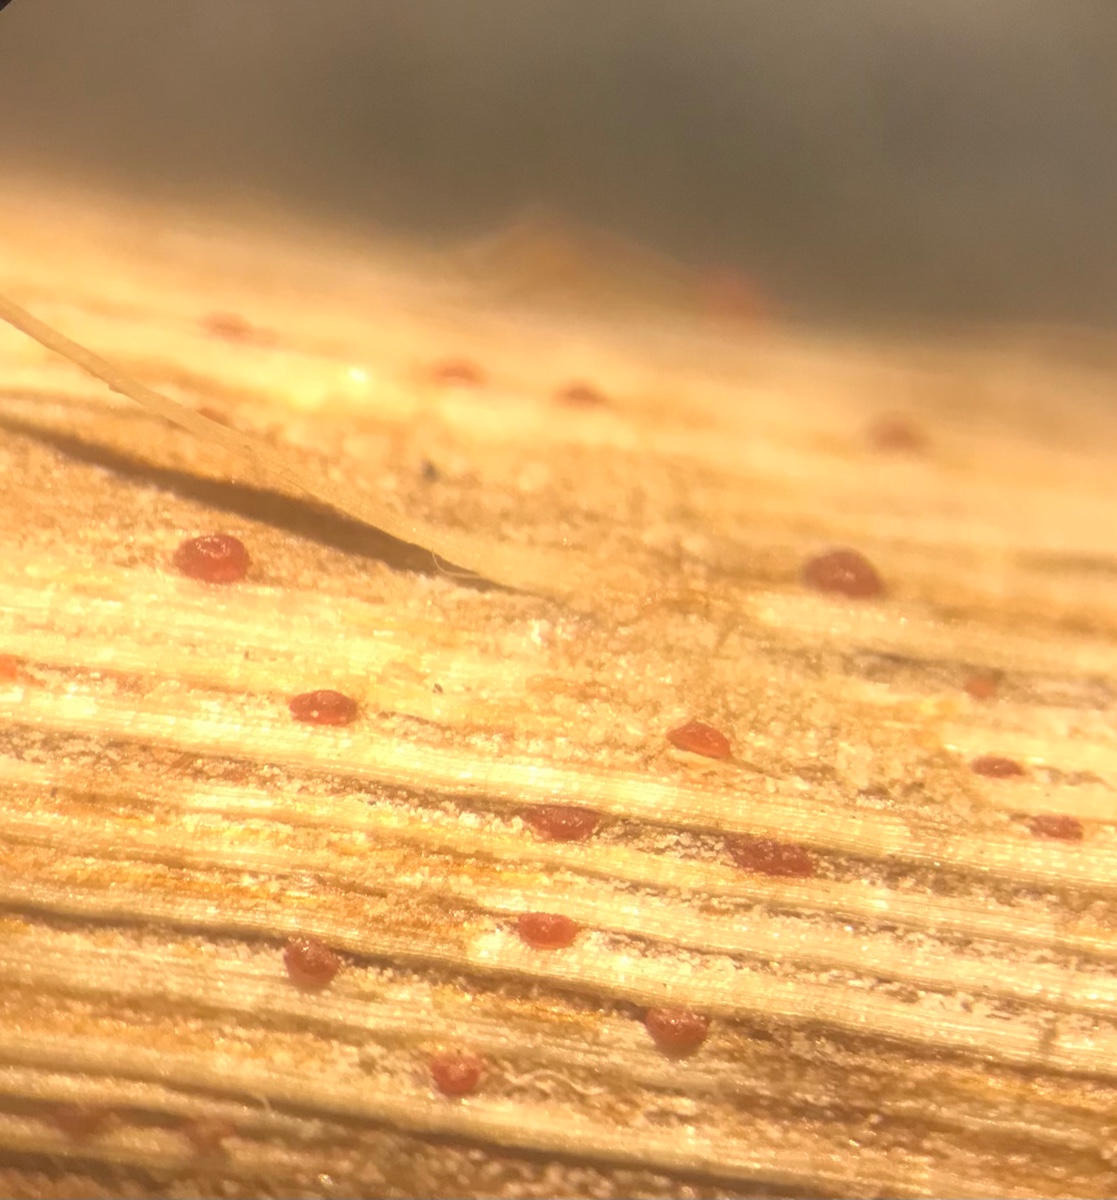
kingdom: Fungi
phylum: Ascomycota
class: Sordariomycetes
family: Thyridiaceae
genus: Thyronectria
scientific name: Thyronectria sinopica
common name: vedbend-cinnobersvamp
